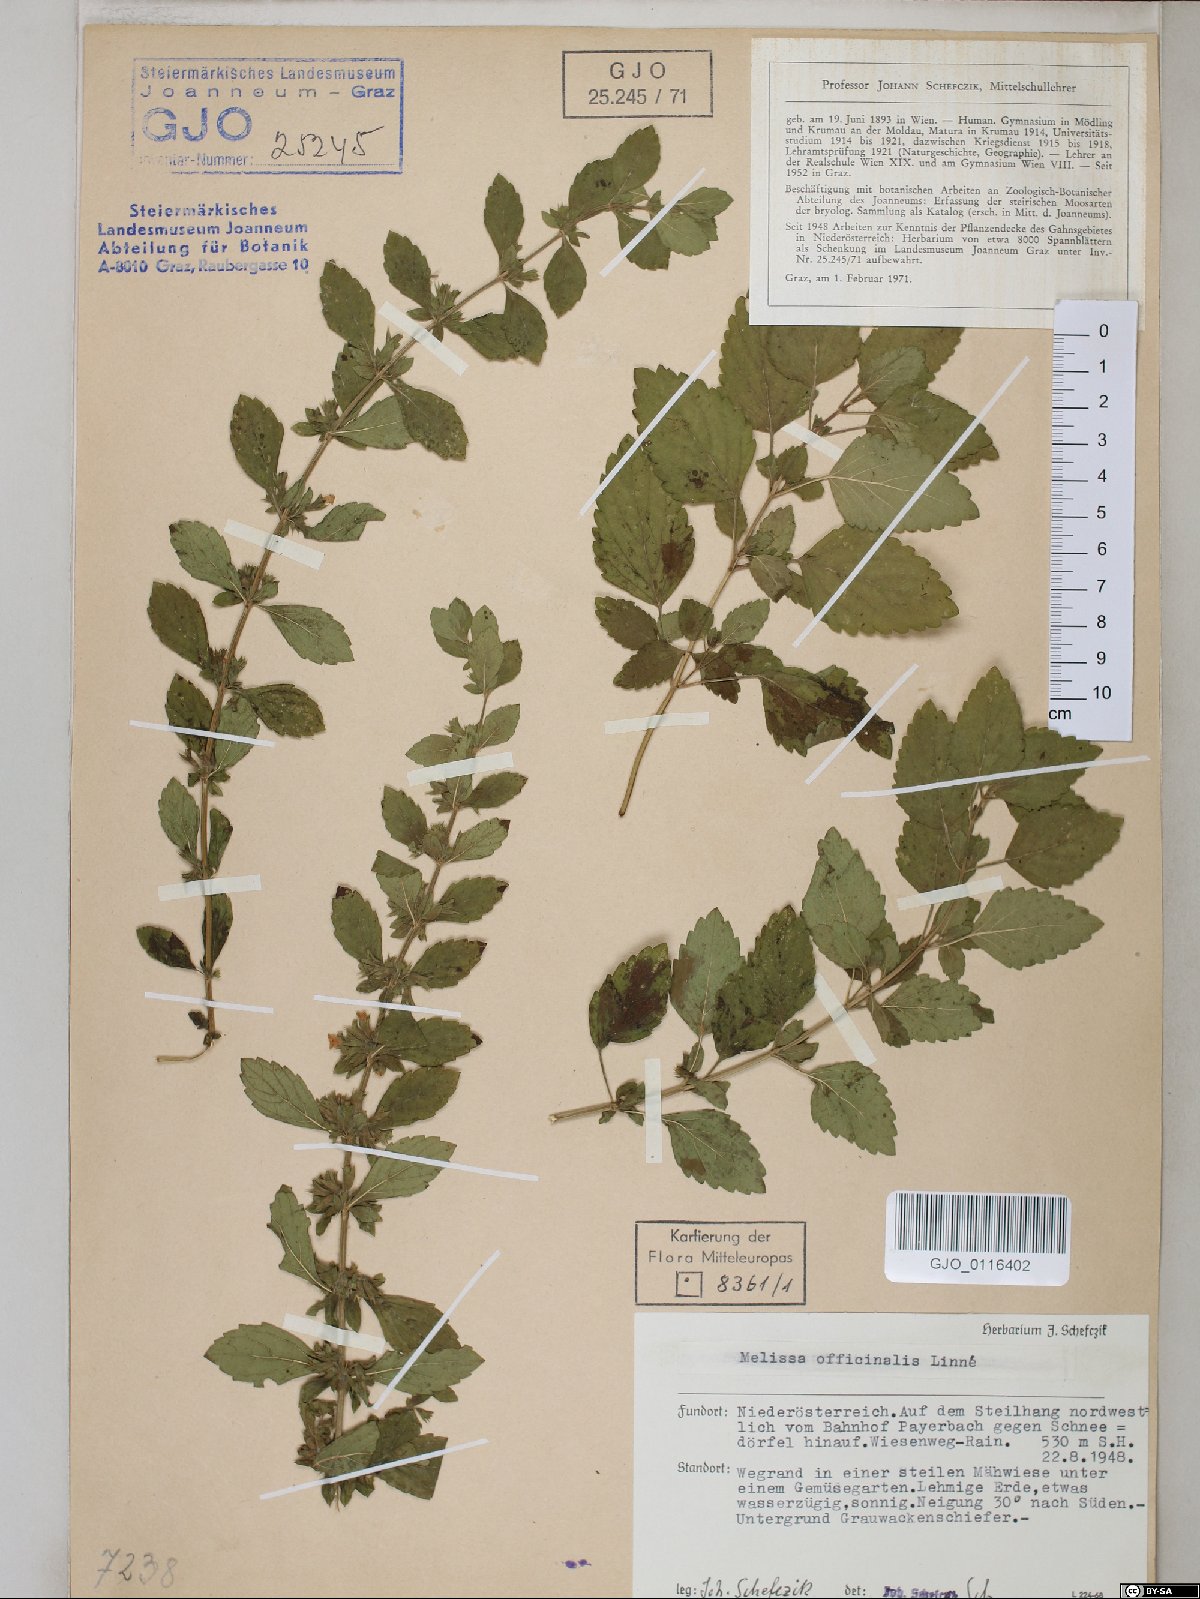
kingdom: Plantae
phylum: Tracheophyta
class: Magnoliopsida
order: Lamiales
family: Lamiaceae
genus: Melissa
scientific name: Melissa officinalis
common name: Balm
